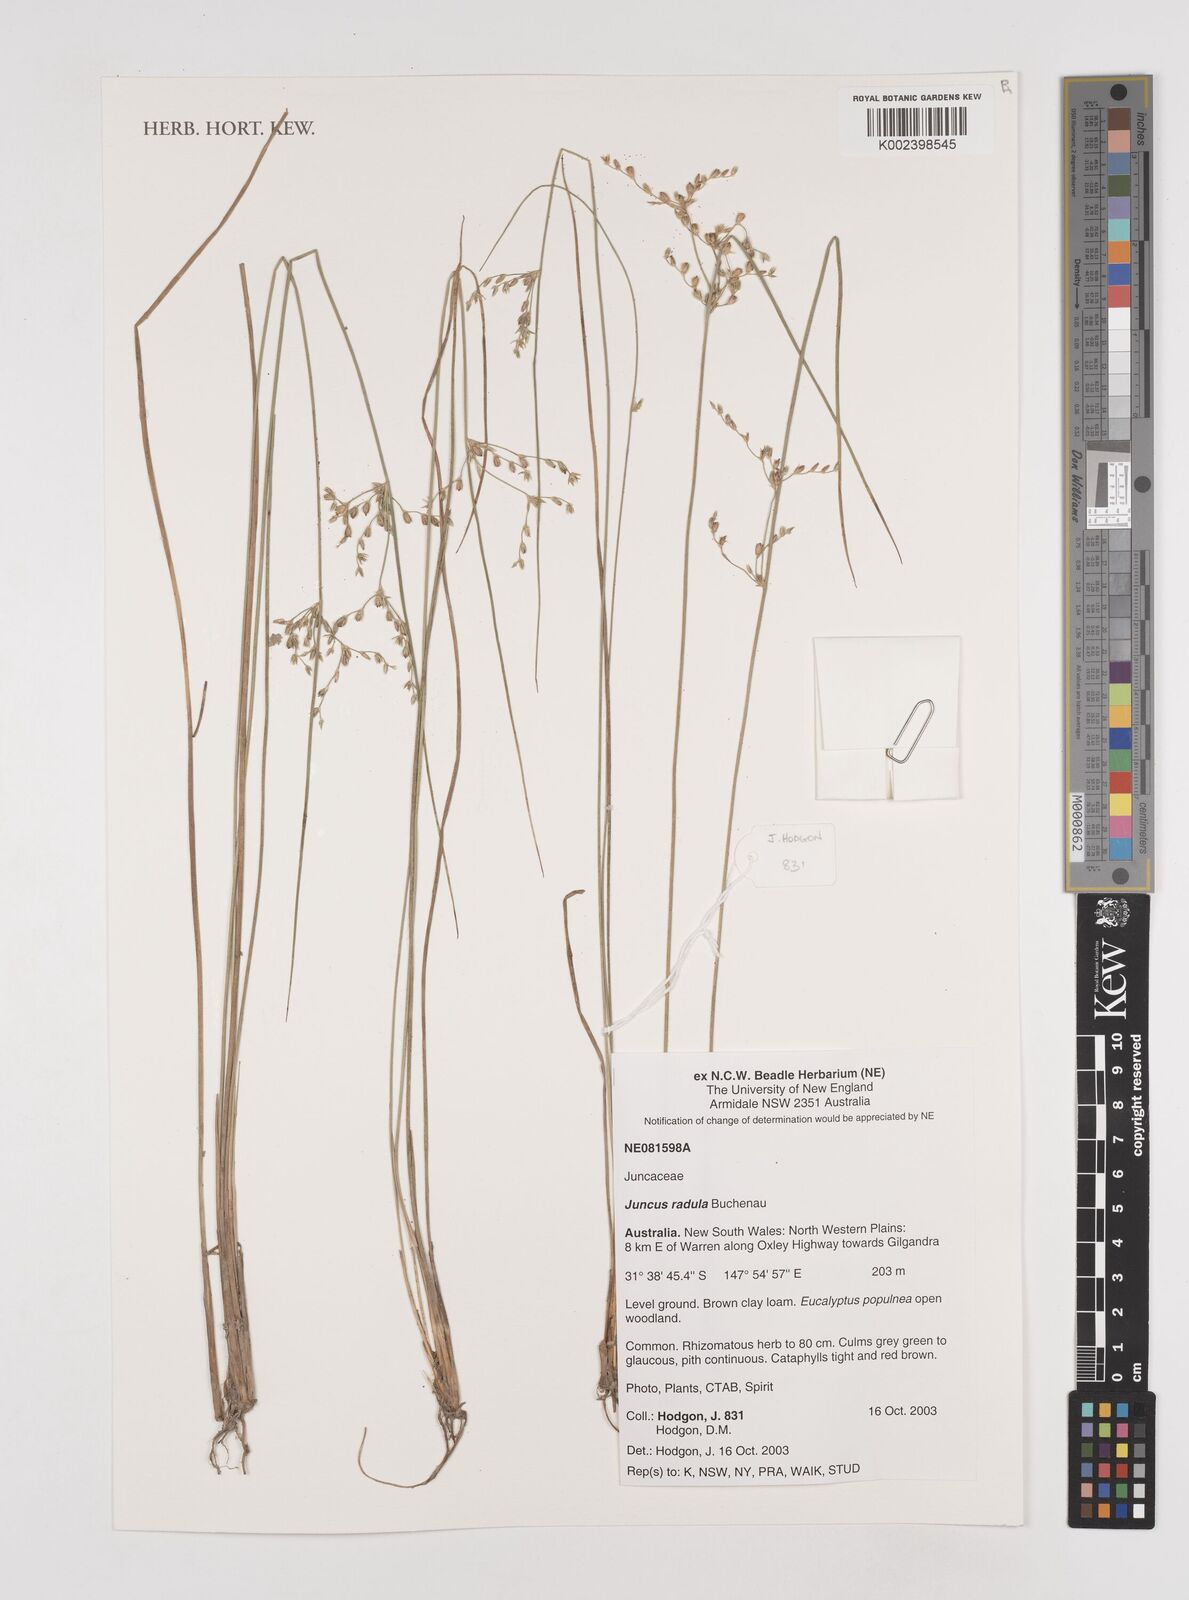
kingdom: Plantae
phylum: Tracheophyta
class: Liliopsida
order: Poales
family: Juncaceae
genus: Juncus
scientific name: Juncus radula
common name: Hoary rush
